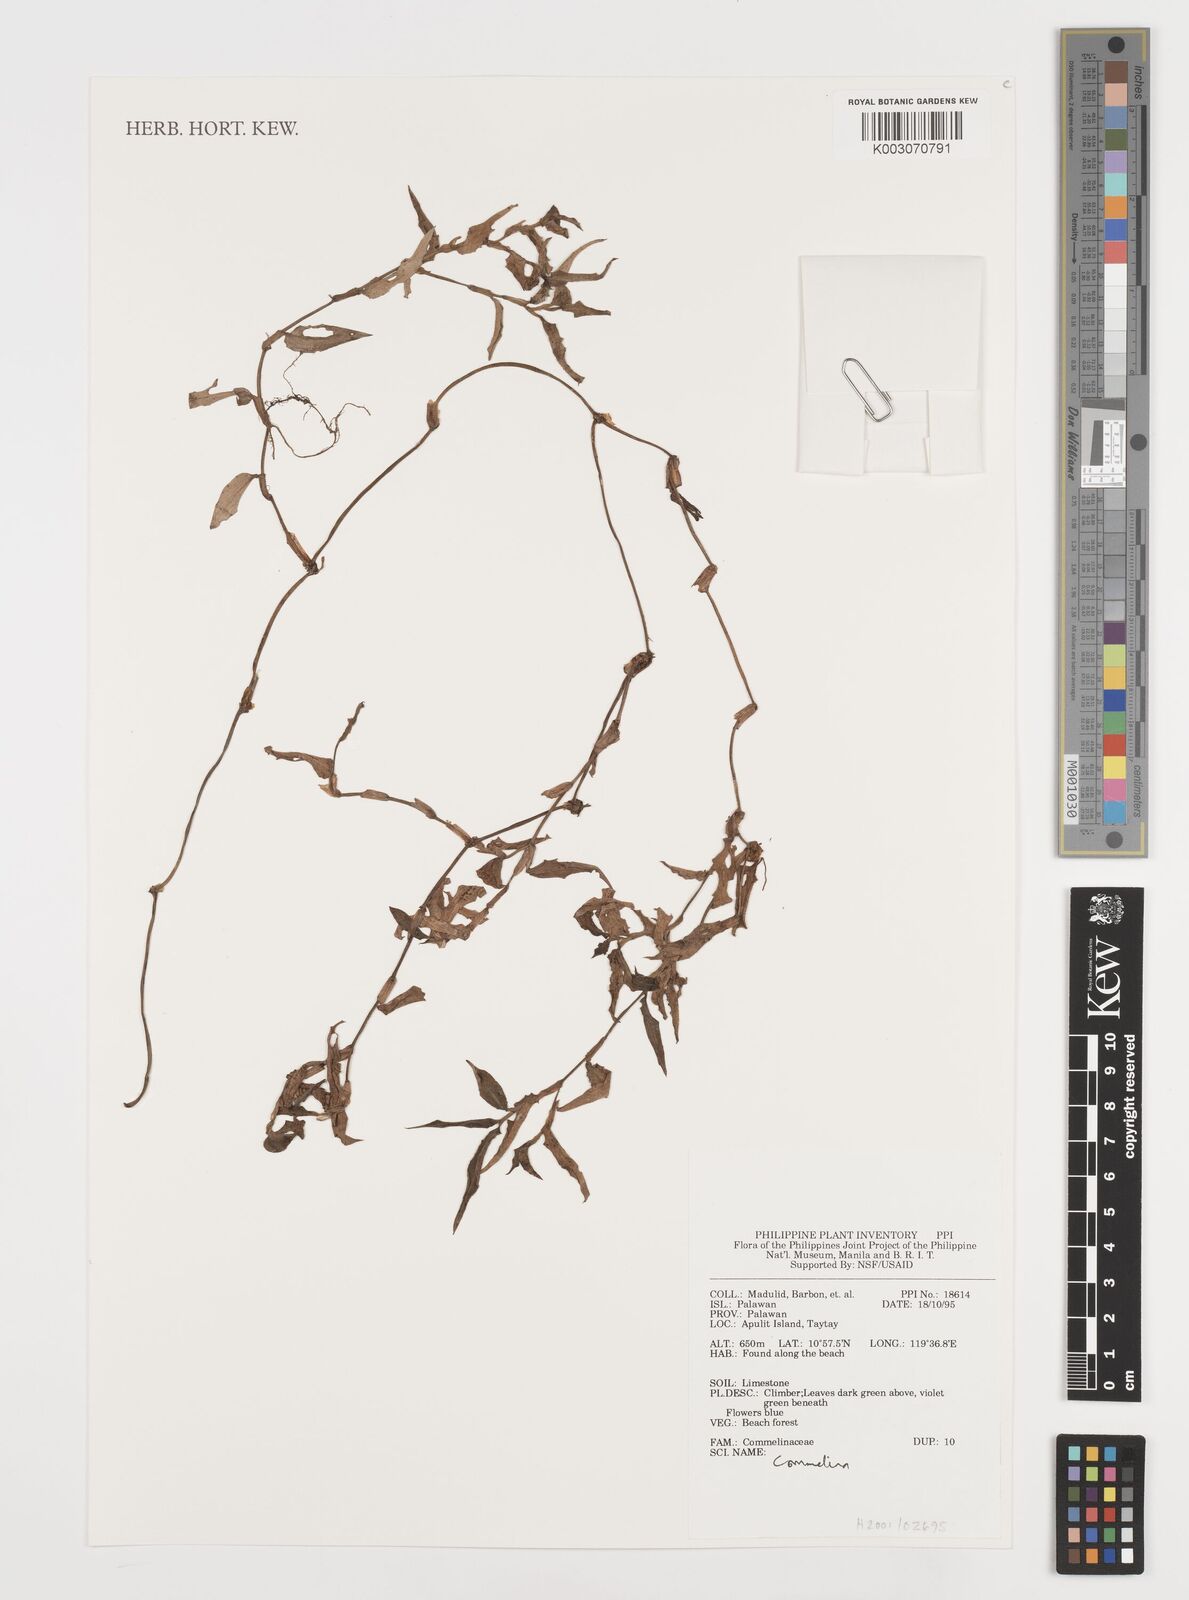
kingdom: Plantae
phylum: Tracheophyta
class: Liliopsida
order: Commelinales
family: Commelinaceae
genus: Commelina
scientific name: Commelina
